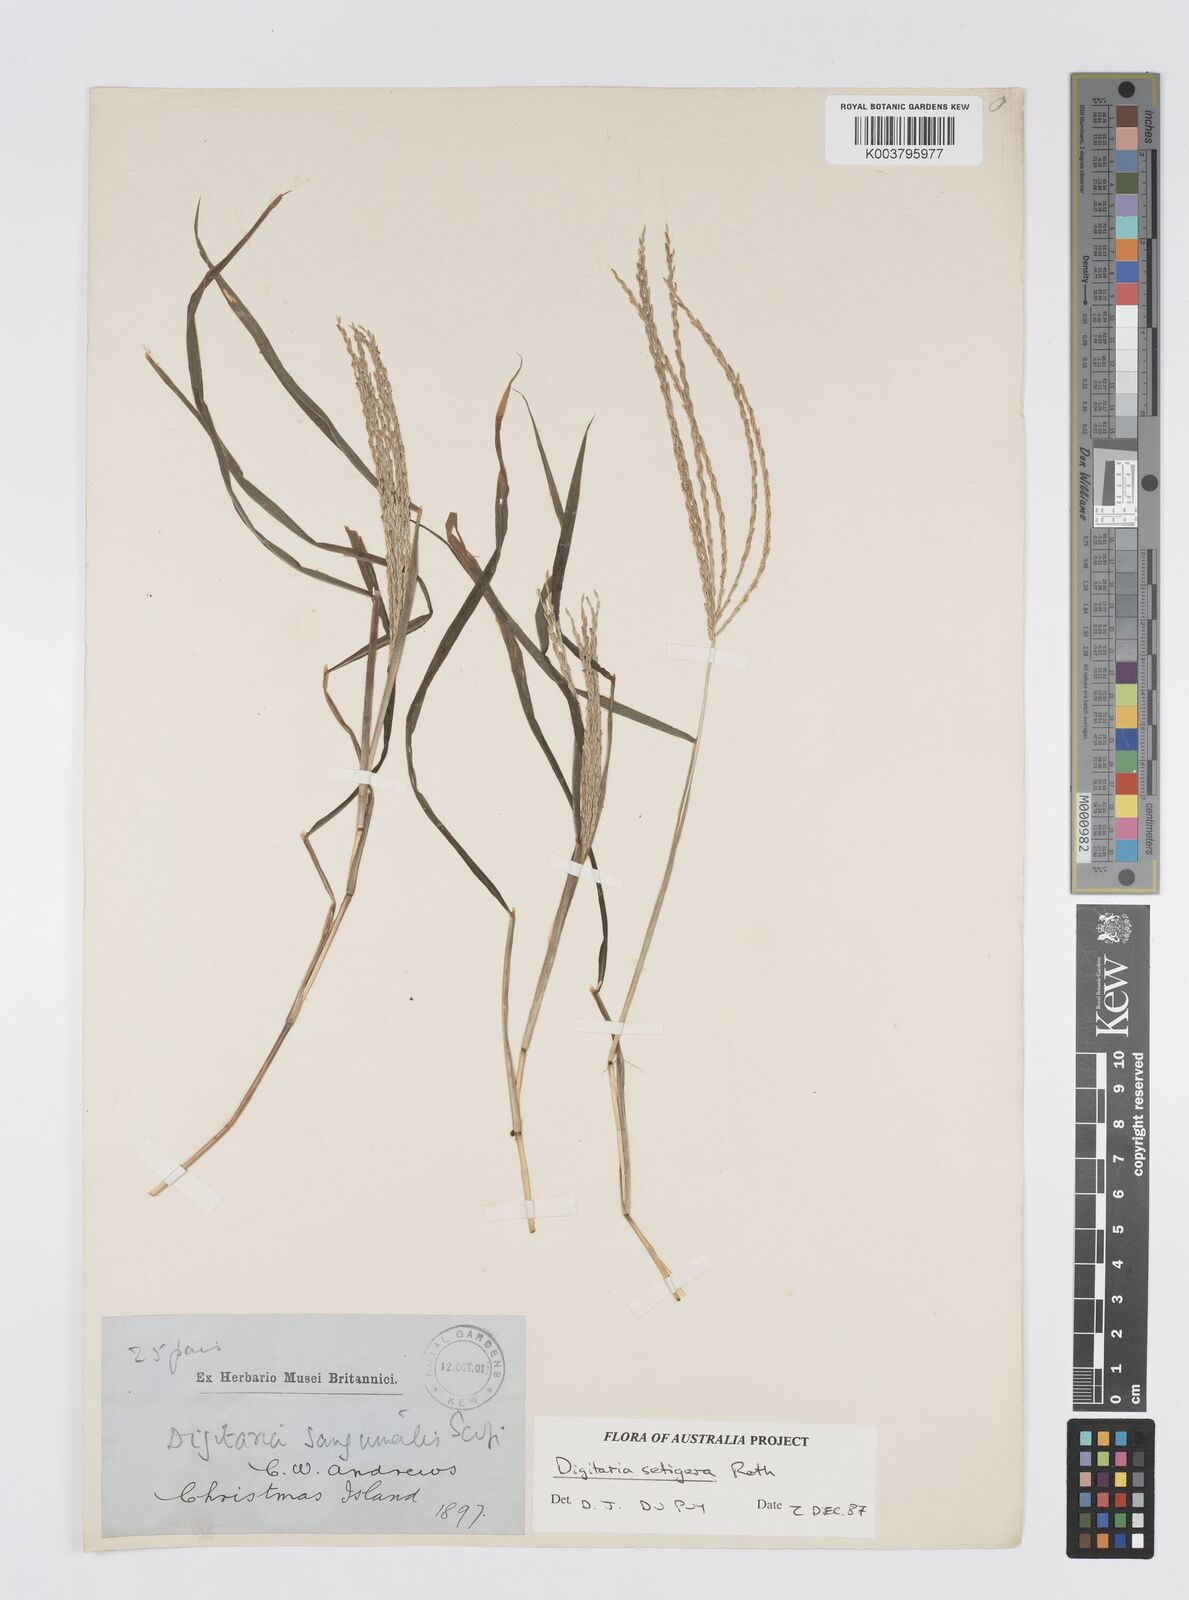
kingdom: Plantae
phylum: Tracheophyta
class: Liliopsida
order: Poales
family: Poaceae
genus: Digitaria
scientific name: Digitaria setigera
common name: East indian crabgrass
